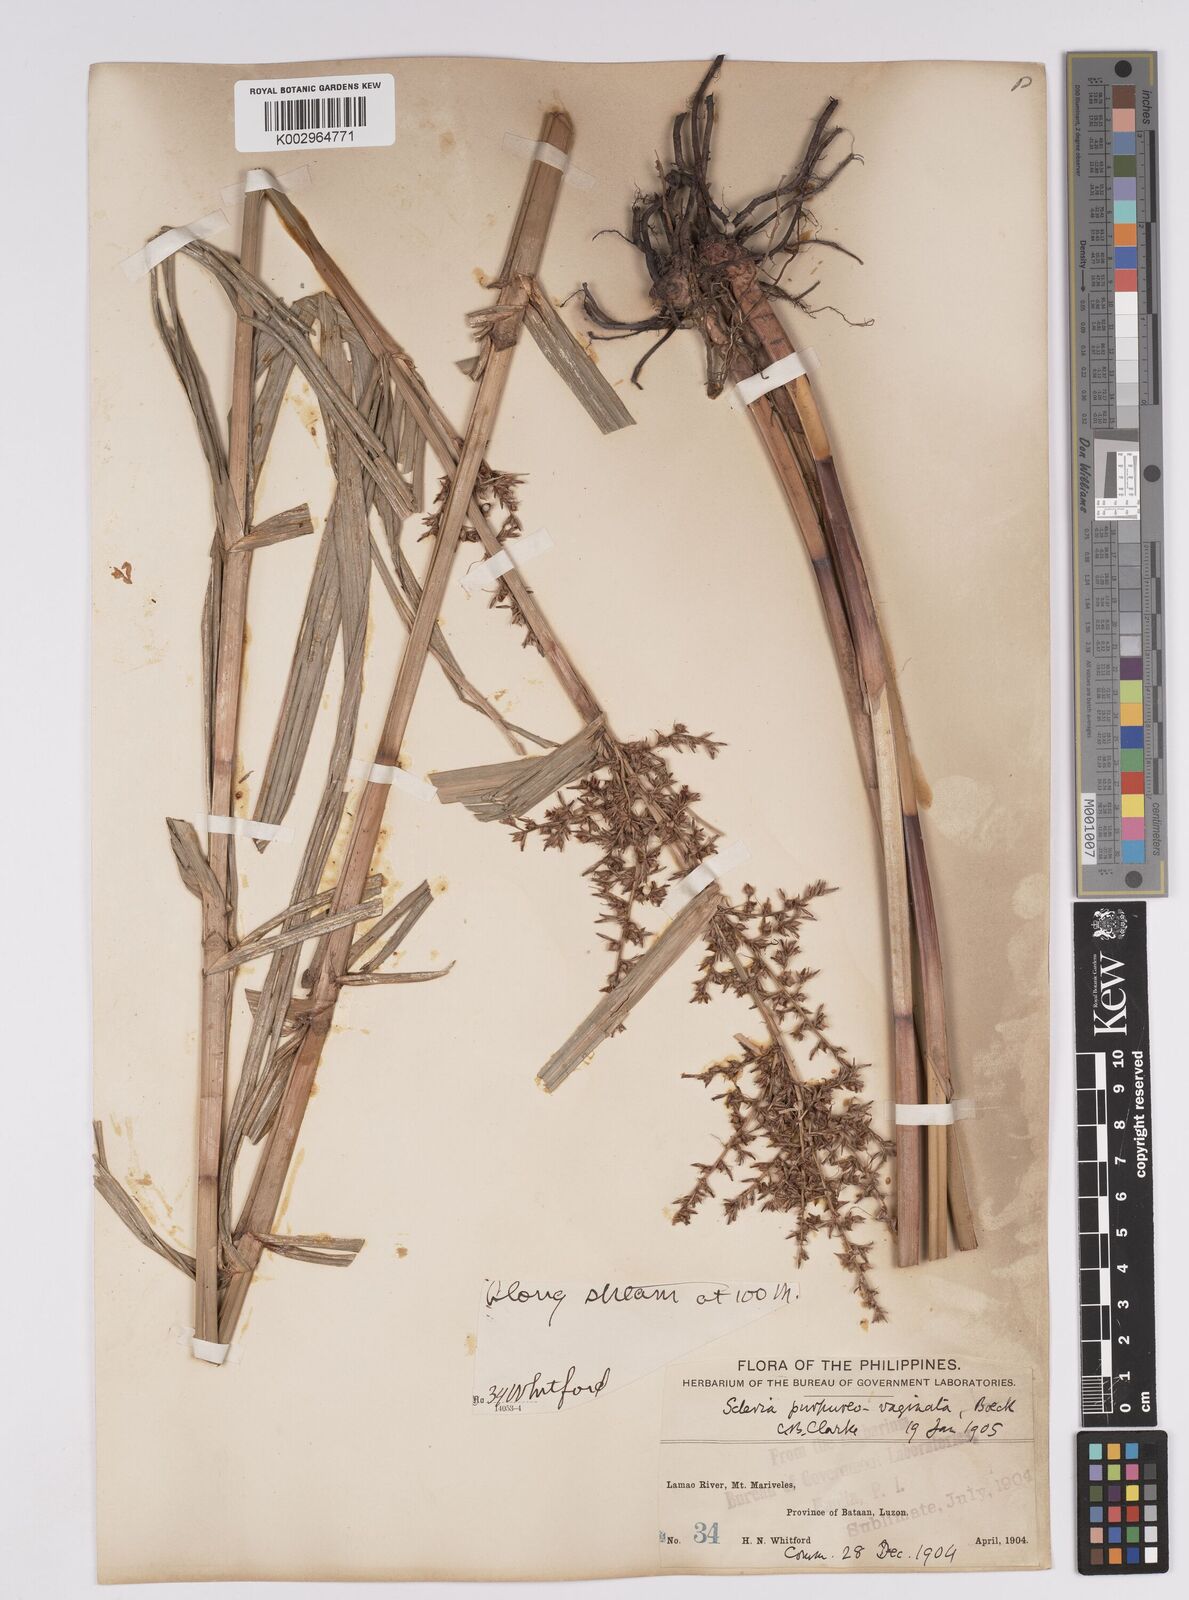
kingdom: Plantae
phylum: Tracheophyta
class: Liliopsida
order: Poales
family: Cyperaceae
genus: Scleria
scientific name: Scleria scrobiculata
